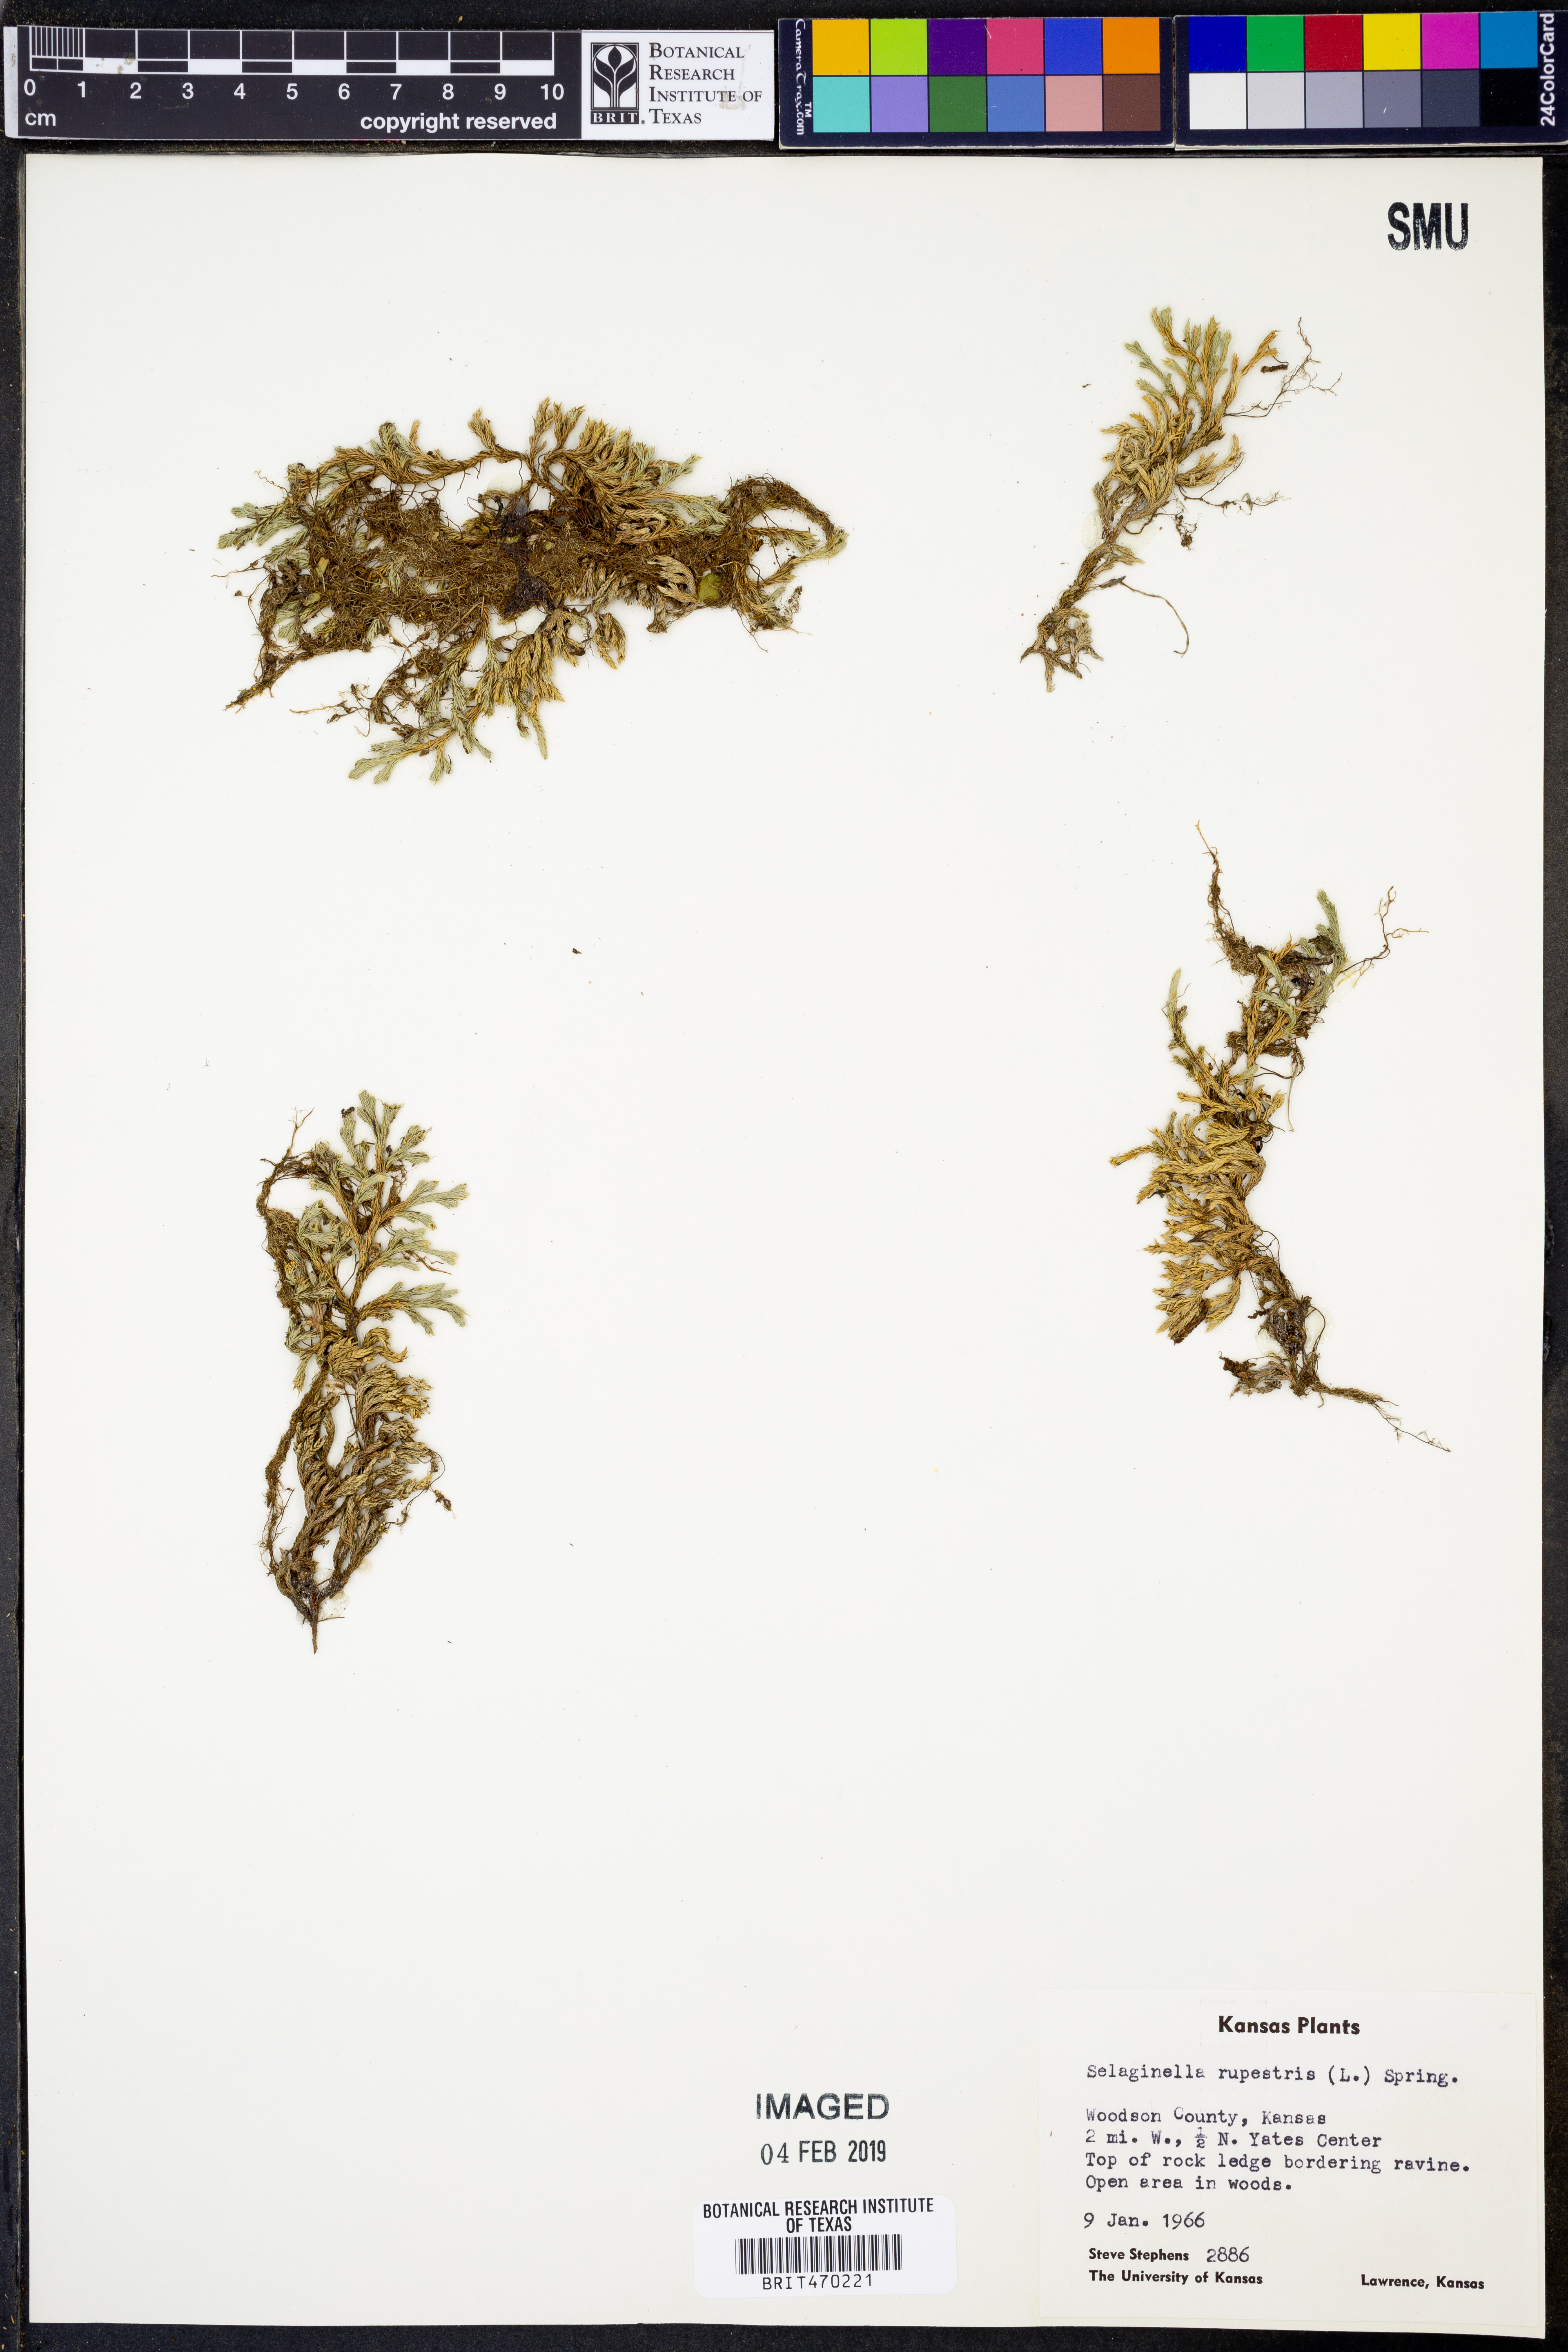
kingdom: Plantae
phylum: Tracheophyta
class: Lycopodiopsida
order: Selaginellales
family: Selaginellaceae
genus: Selaginella
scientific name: Selaginella rupestris
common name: Dwarf spikemoss
